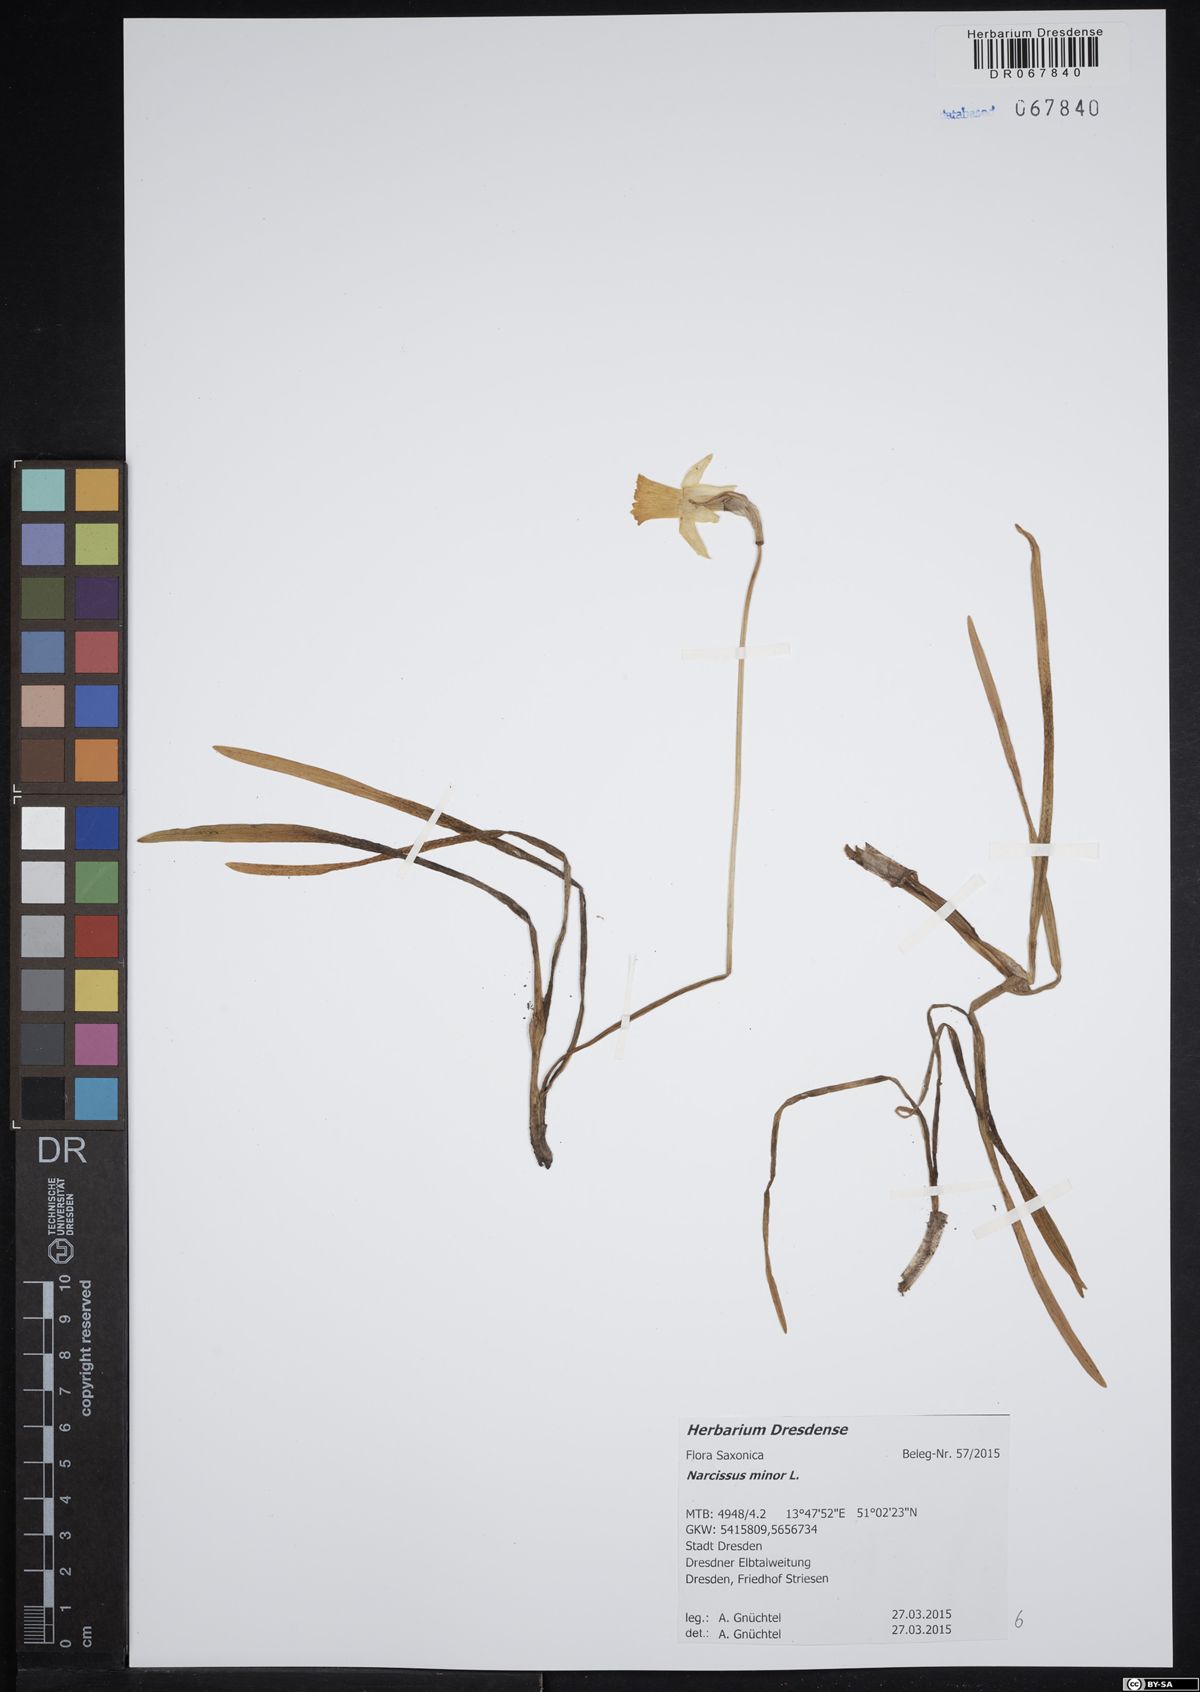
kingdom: Plantae
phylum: Tracheophyta
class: Liliopsida
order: Asparagales
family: Amaryllidaceae
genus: Narcissus
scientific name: Narcissus minor
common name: Lesser daffodil
